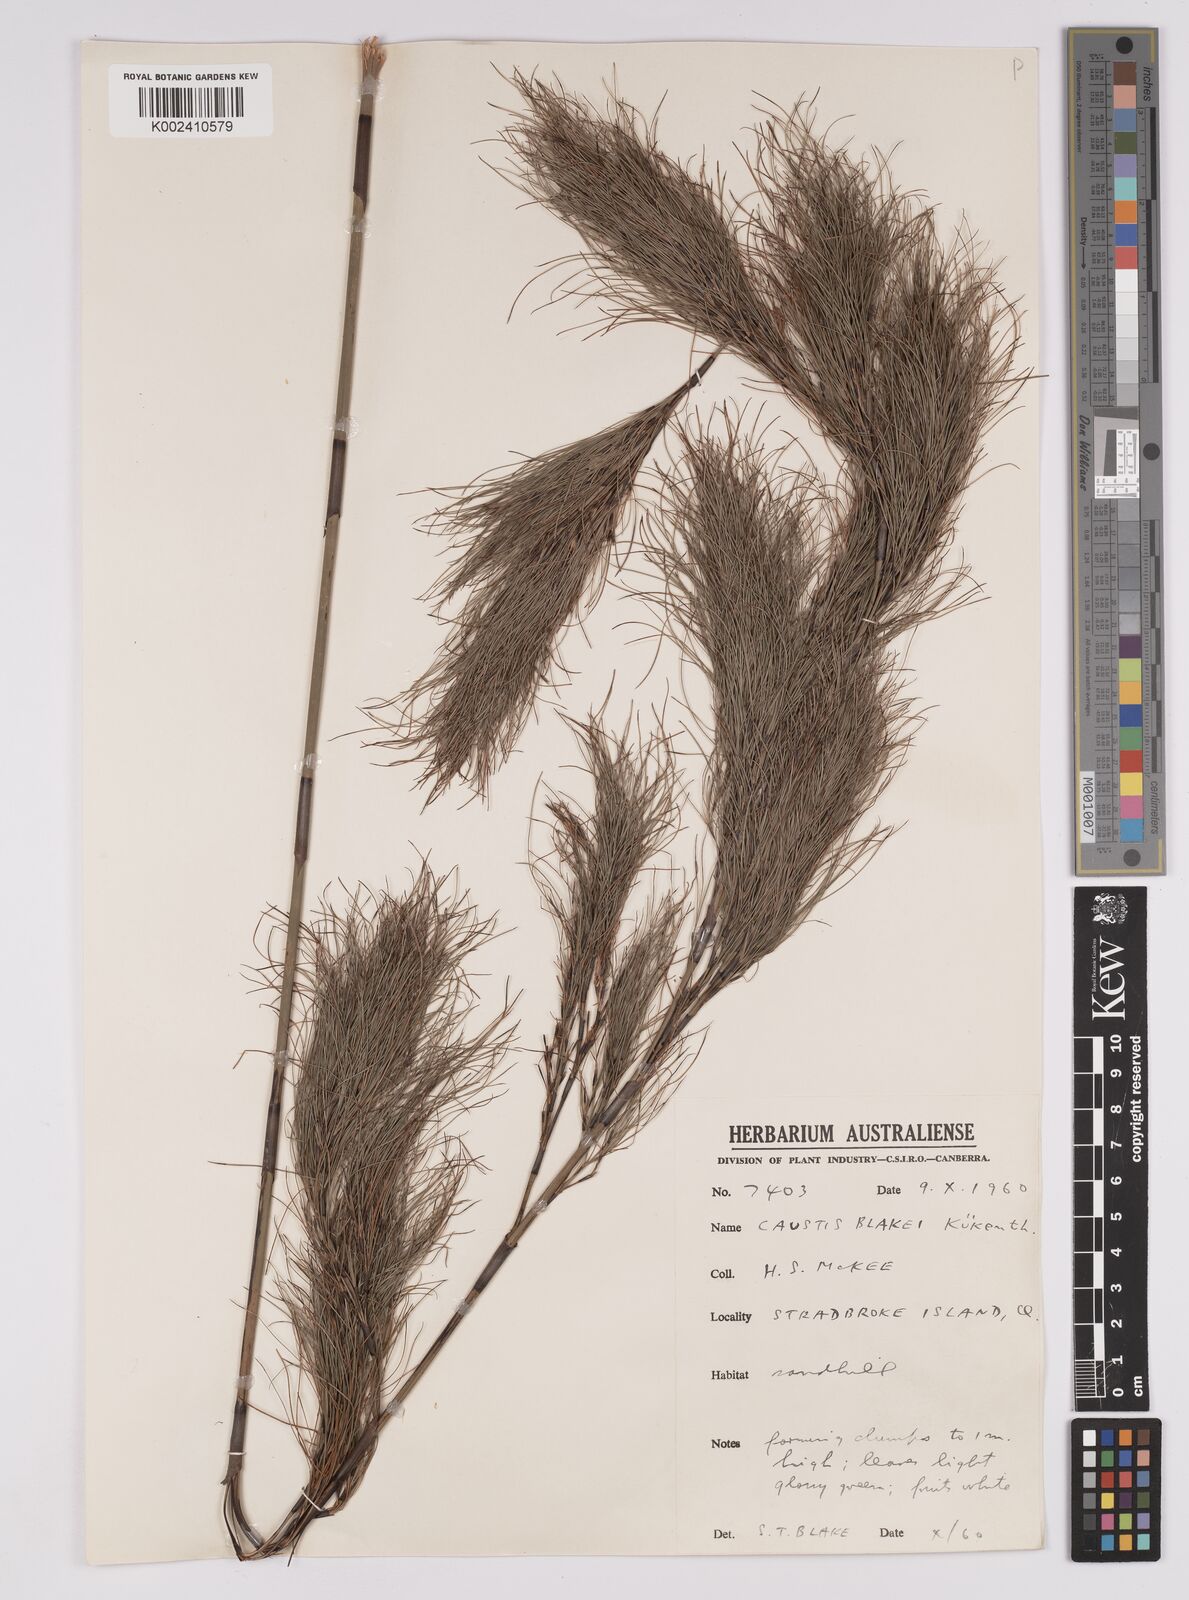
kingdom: Plantae
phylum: Tracheophyta
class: Liliopsida
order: Poales
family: Cyperaceae
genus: Caustis
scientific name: Caustis blakei
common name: Foxtail-fern
